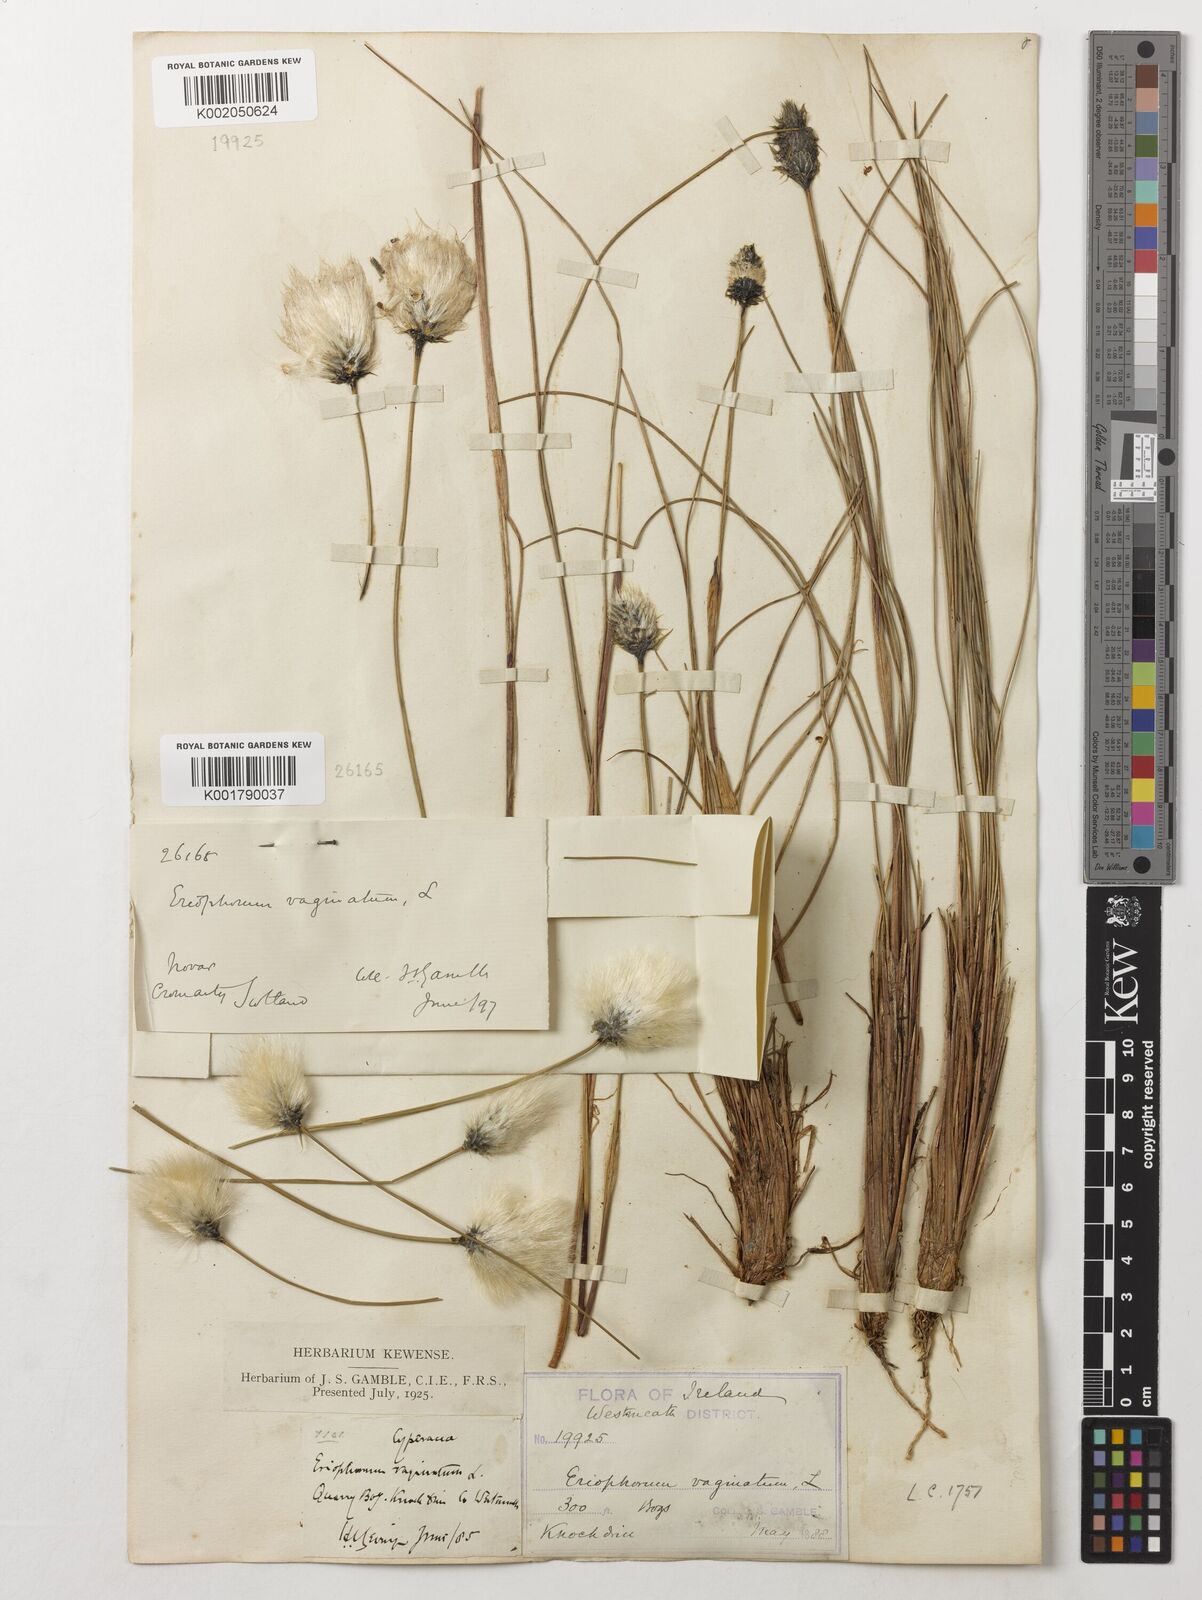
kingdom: Plantae
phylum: Tracheophyta
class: Liliopsida
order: Poales
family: Cyperaceae
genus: Eriophorum
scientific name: Eriophorum vaginatum
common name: Hare's-tail cottongrass
